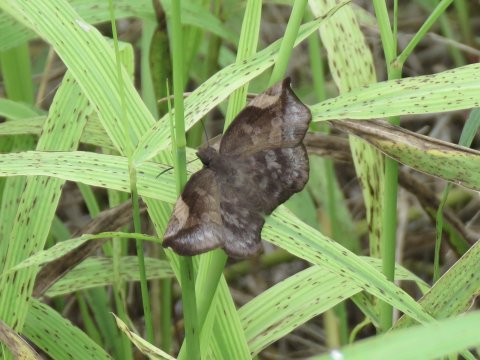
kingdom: Animalia
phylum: Arthropoda
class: Insecta
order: Lepidoptera
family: Hesperiidae
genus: Achlyodes
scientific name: Achlyodes thraso
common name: Sickle-winged Skipper
